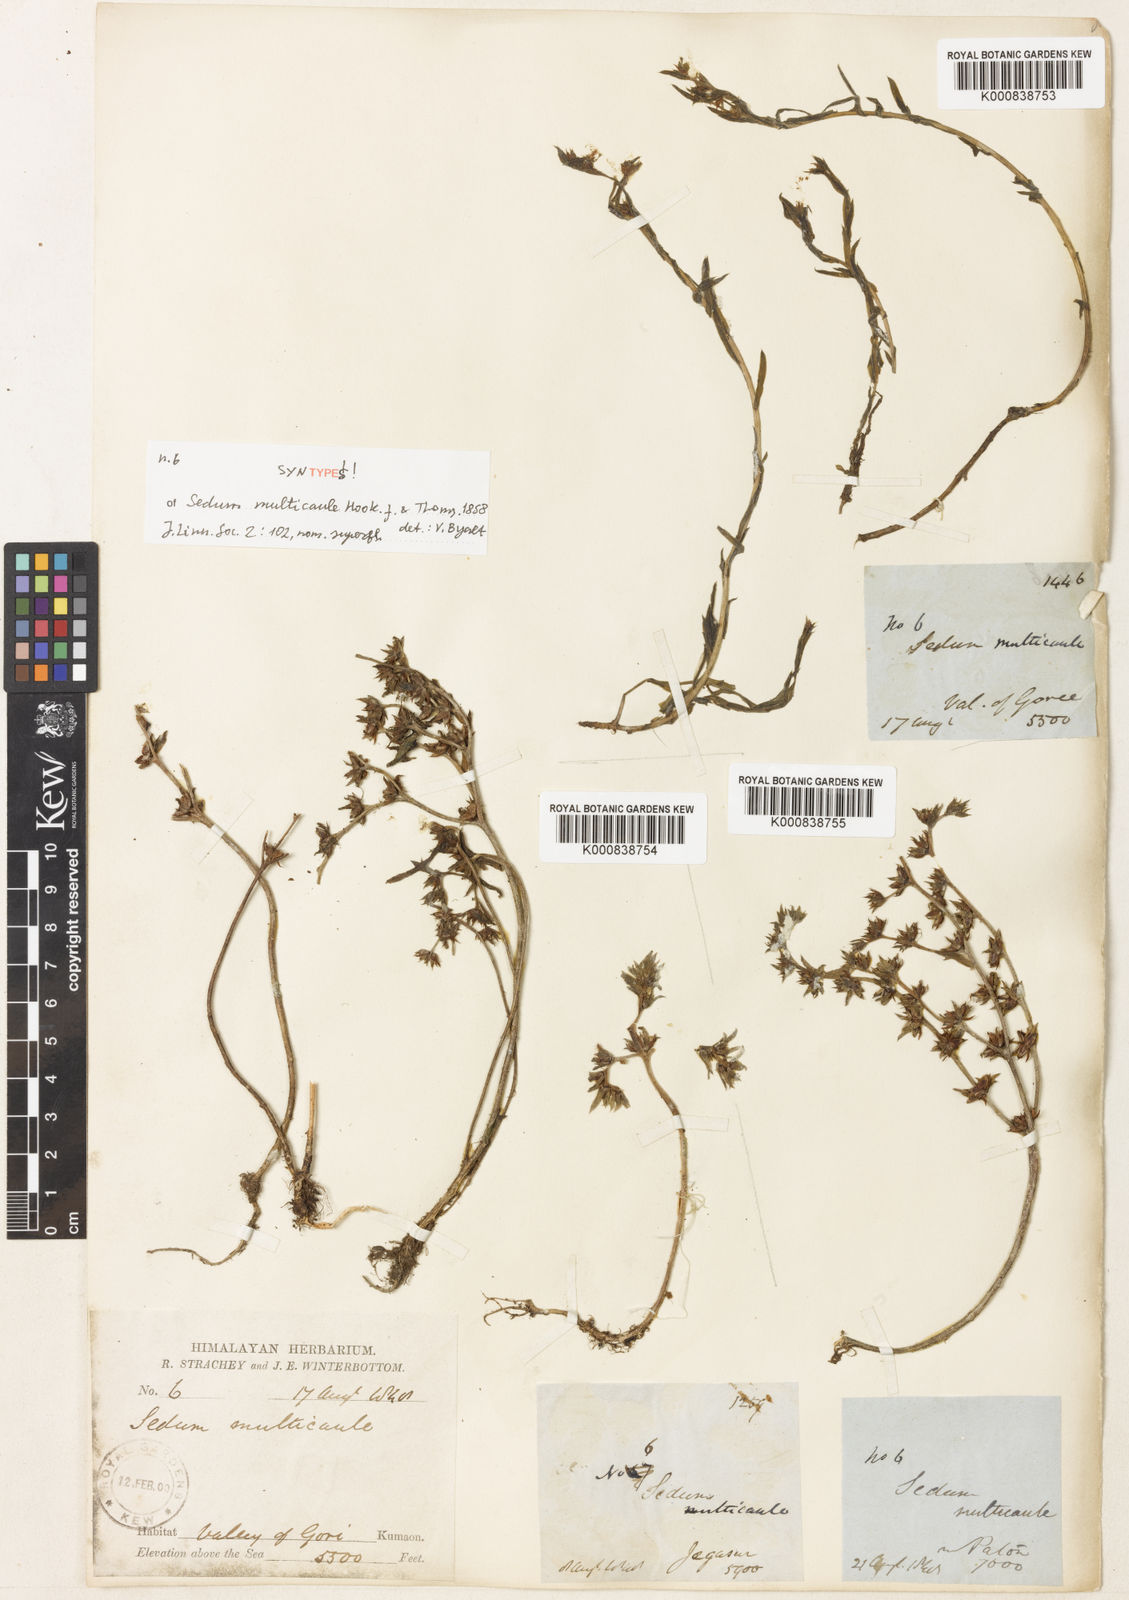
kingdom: Plantae
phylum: Tracheophyta
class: Magnoliopsida
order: Saxifragales
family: Crassulaceae
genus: Sedum
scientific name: Sedum
